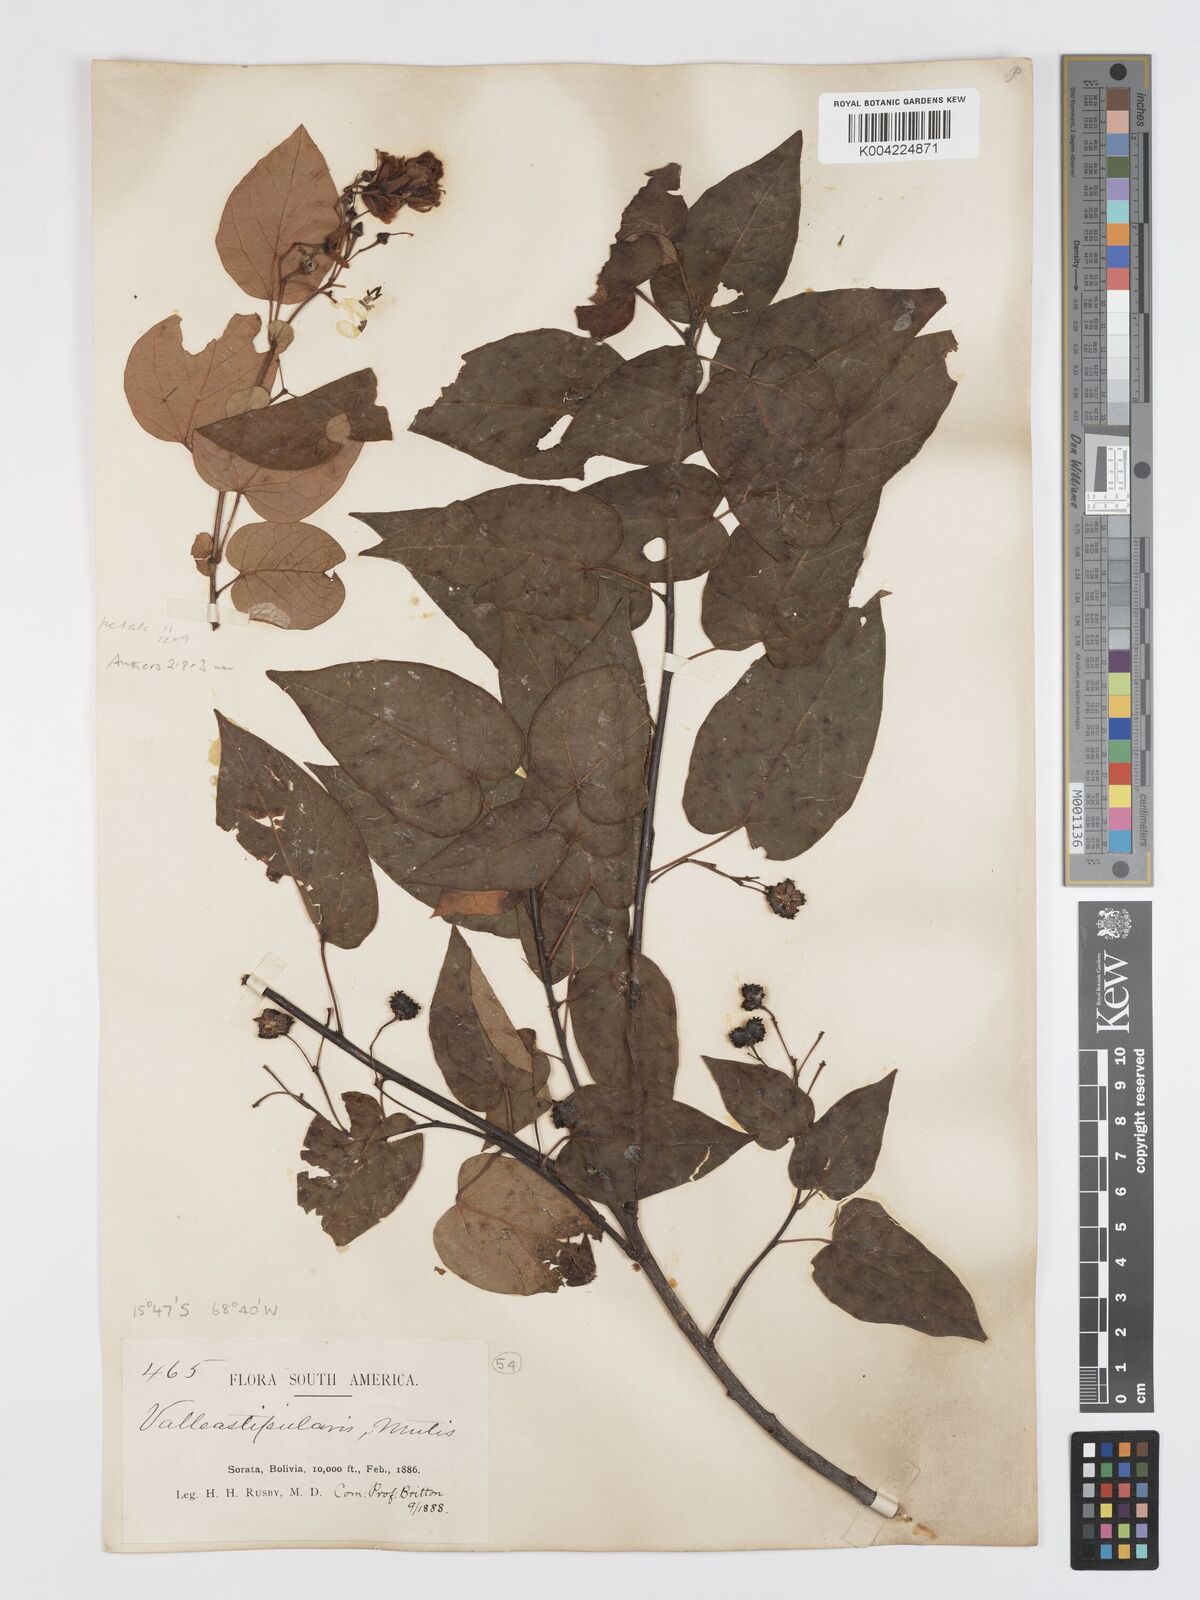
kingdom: Plantae
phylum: Tracheophyta
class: Magnoliopsida
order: Oxalidales
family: Elaeocarpaceae
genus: Vallea
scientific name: Vallea stipularis
